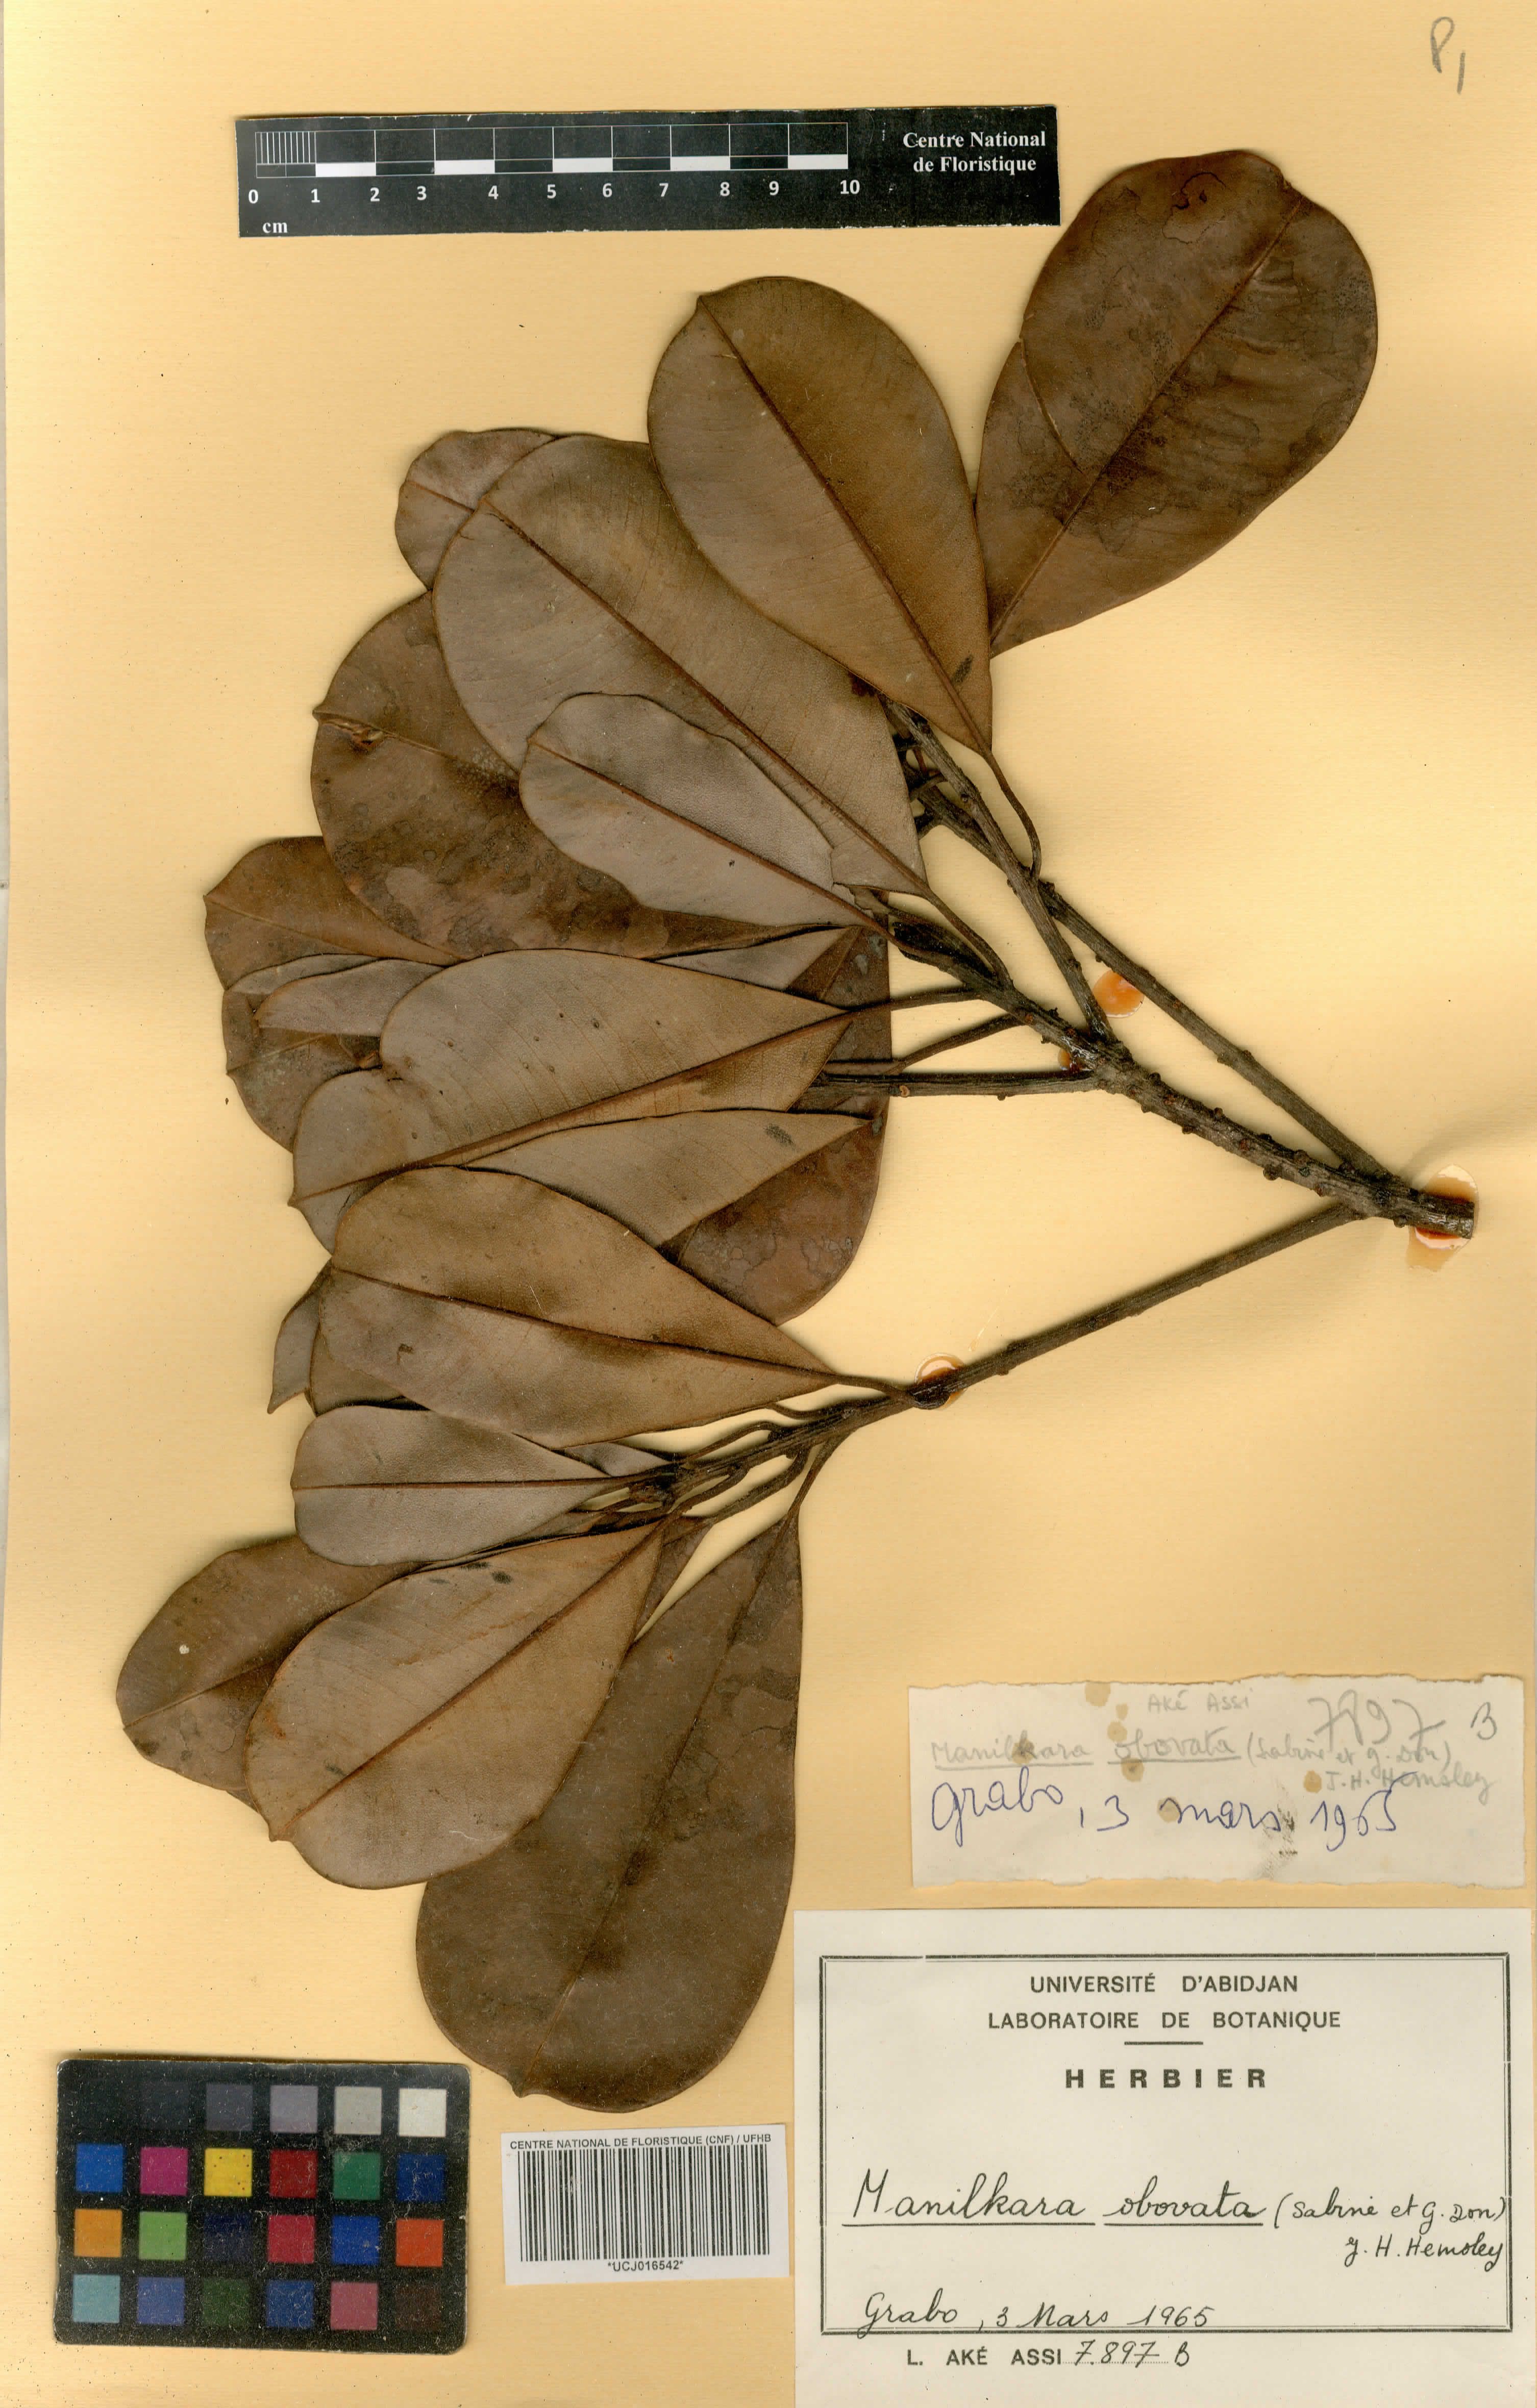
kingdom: Plantae
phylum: Tracheophyta
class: Magnoliopsida
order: Ericales
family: Sapotaceae
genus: Manilkara
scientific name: Manilkara obovata
